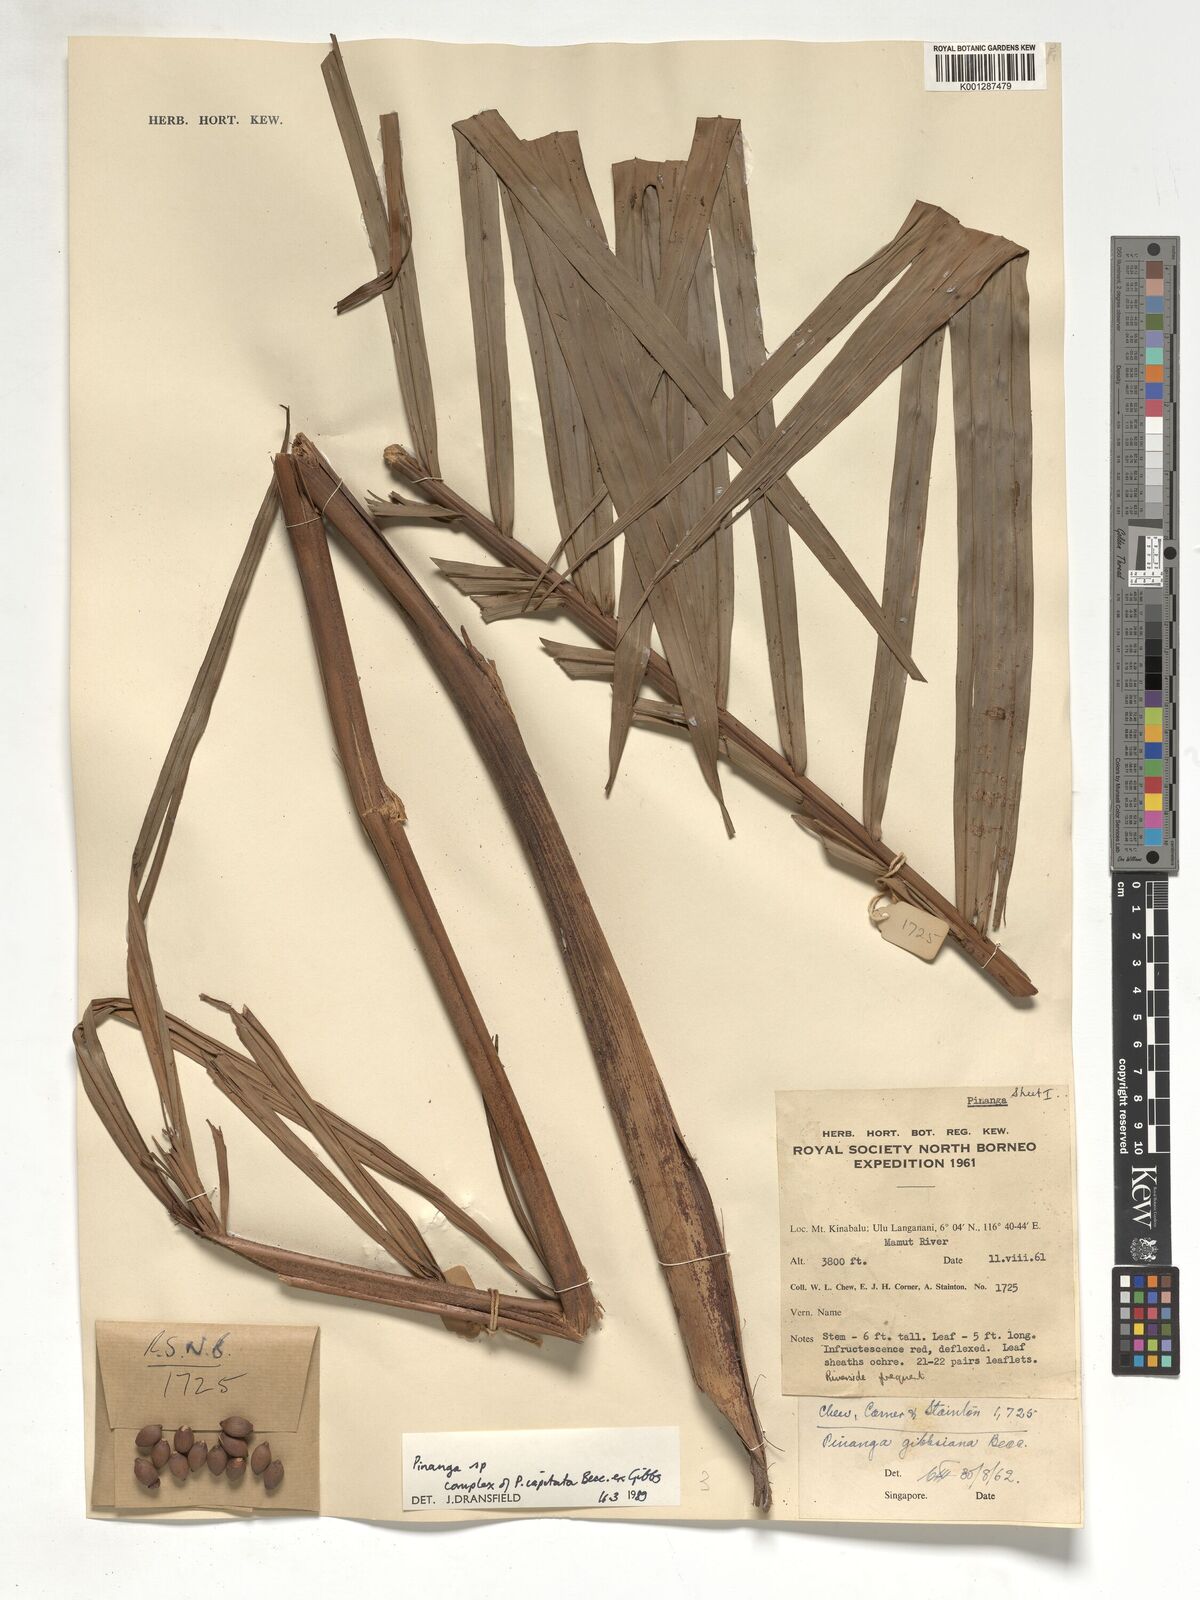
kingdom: Plantae
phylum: Tracheophyta
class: Liliopsida
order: Arecales
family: Arecaceae
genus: Pinanga
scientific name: Pinanga
